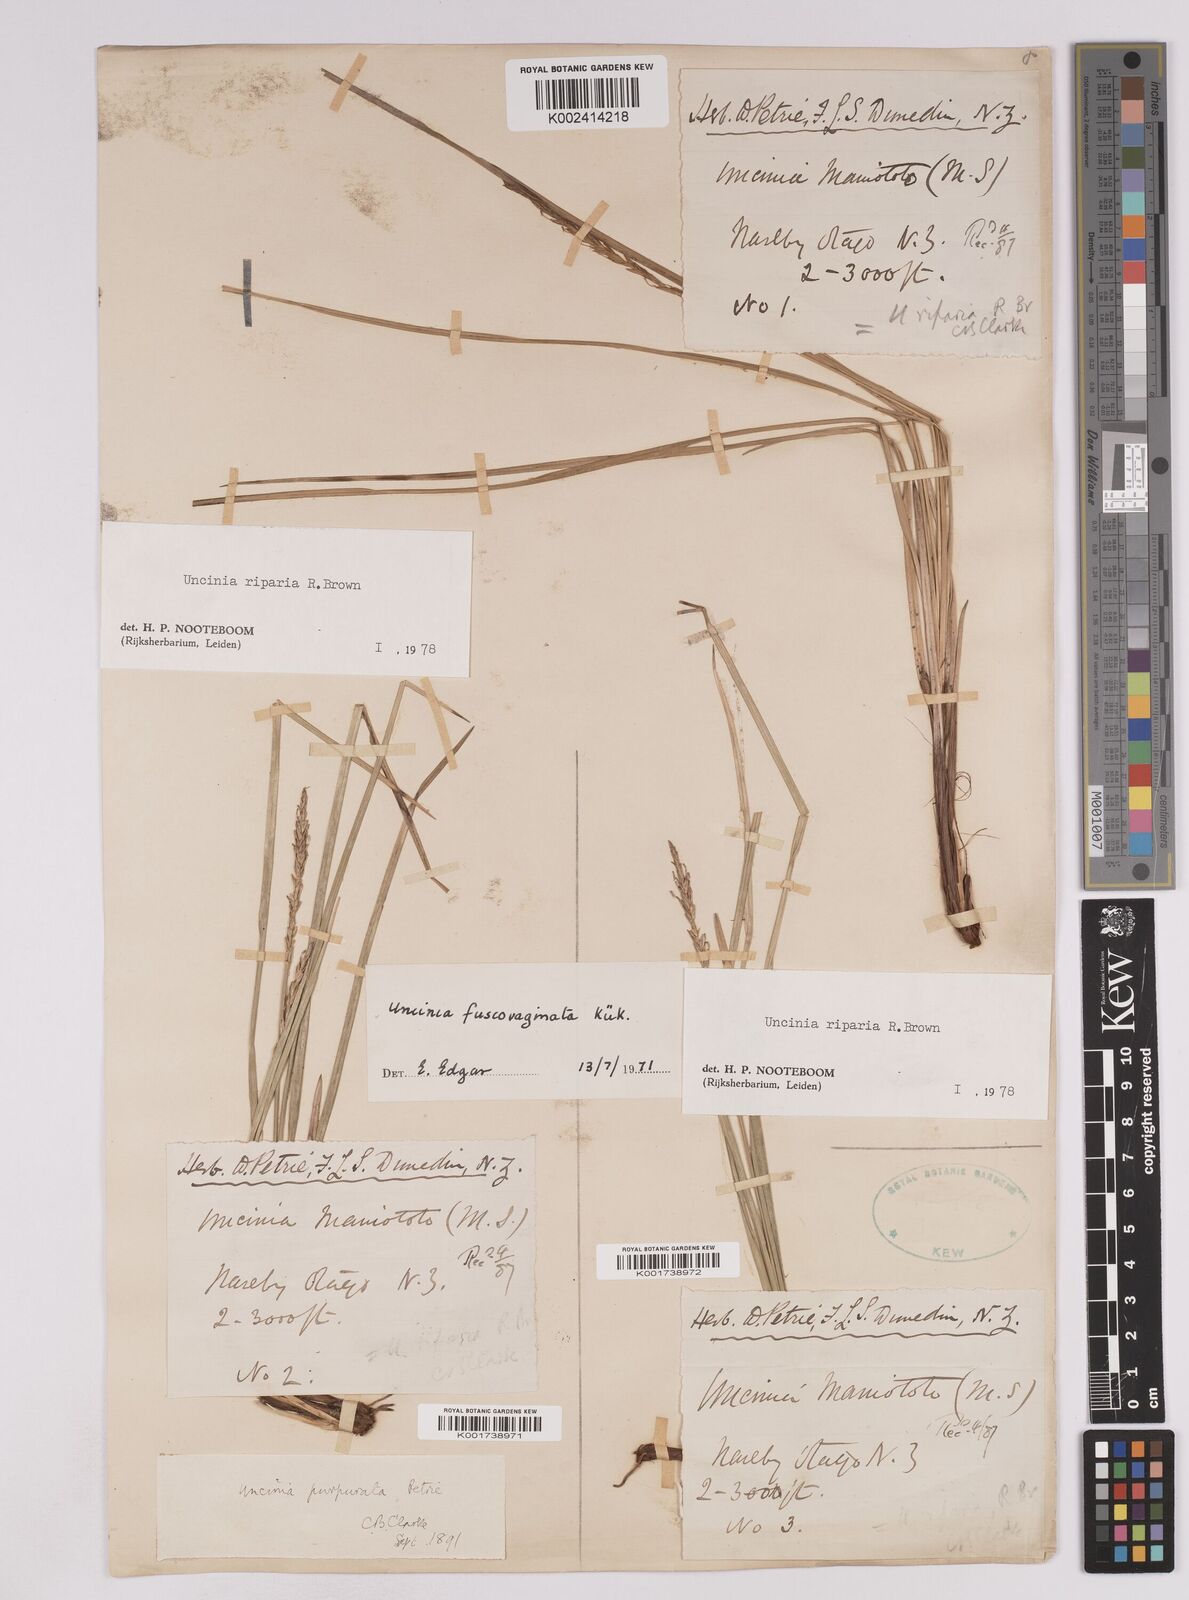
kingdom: Plantae
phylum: Tracheophyta
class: Liliopsida
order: Poales
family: Cyperaceae
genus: Carex
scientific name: Carex penalpina
